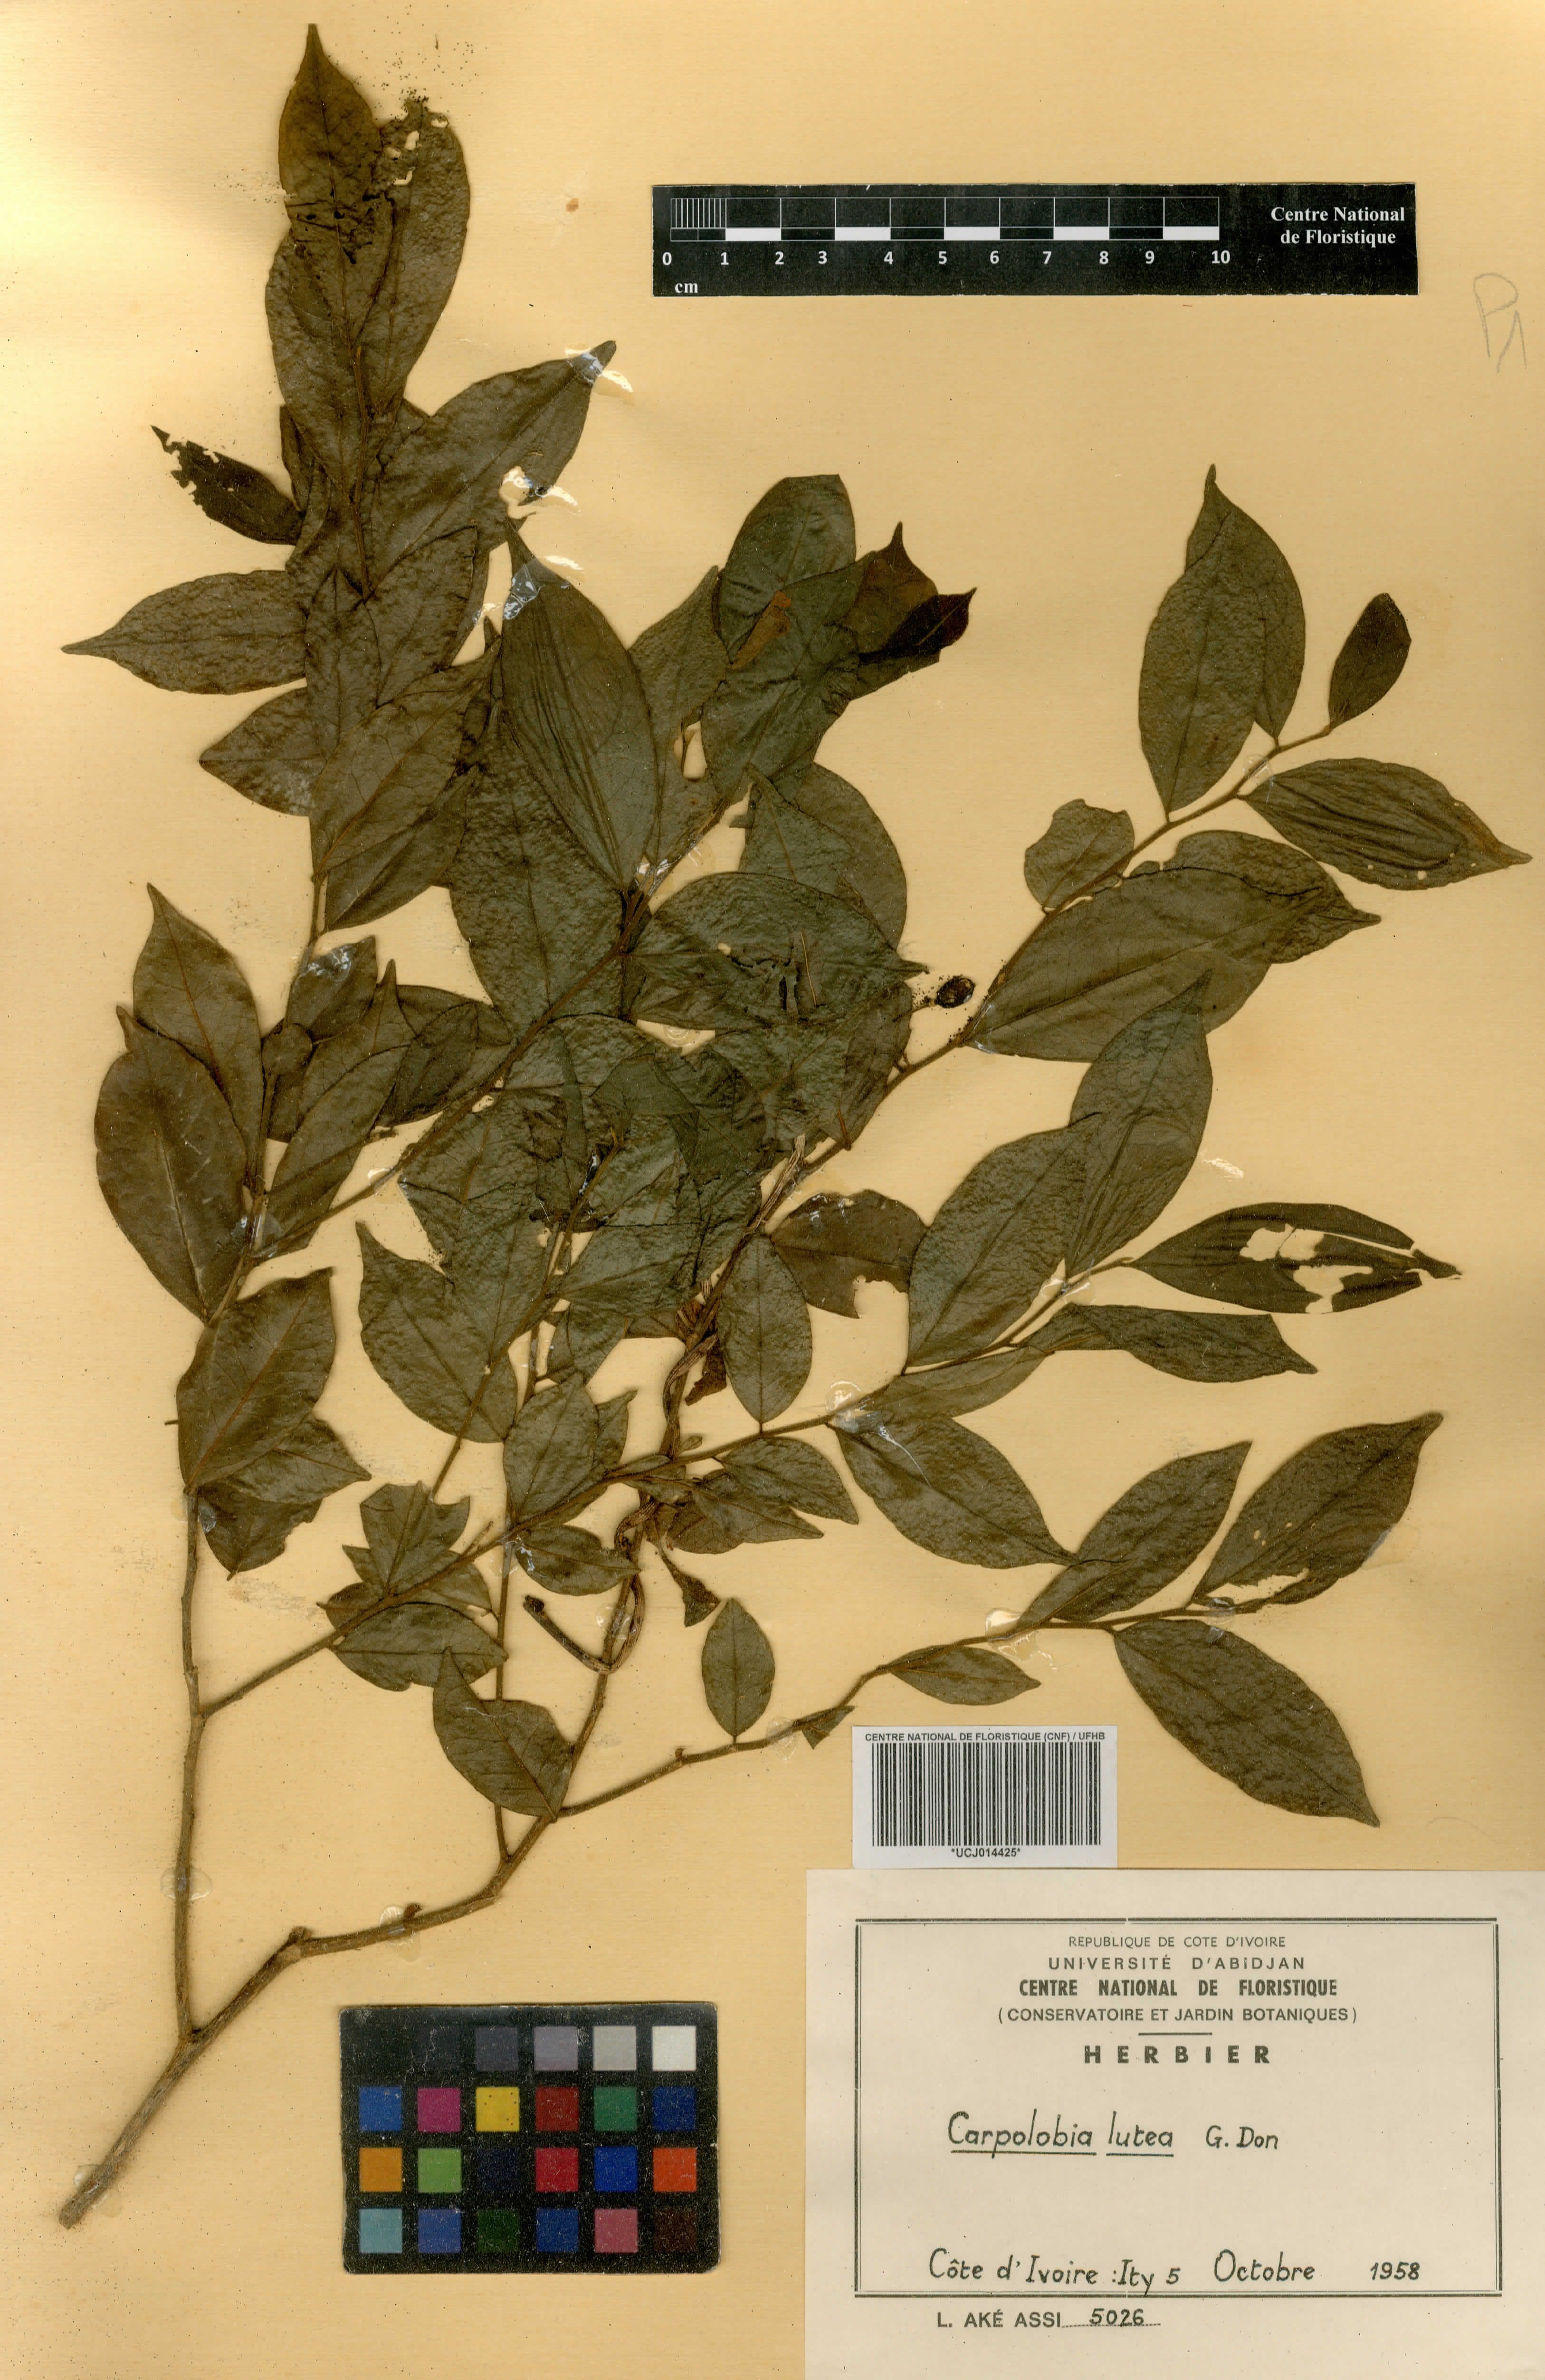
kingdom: Plantae
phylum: Tracheophyta
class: Magnoliopsida
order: Fabales
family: Polygalaceae
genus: Carpolobia
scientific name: Carpolobia lutea
